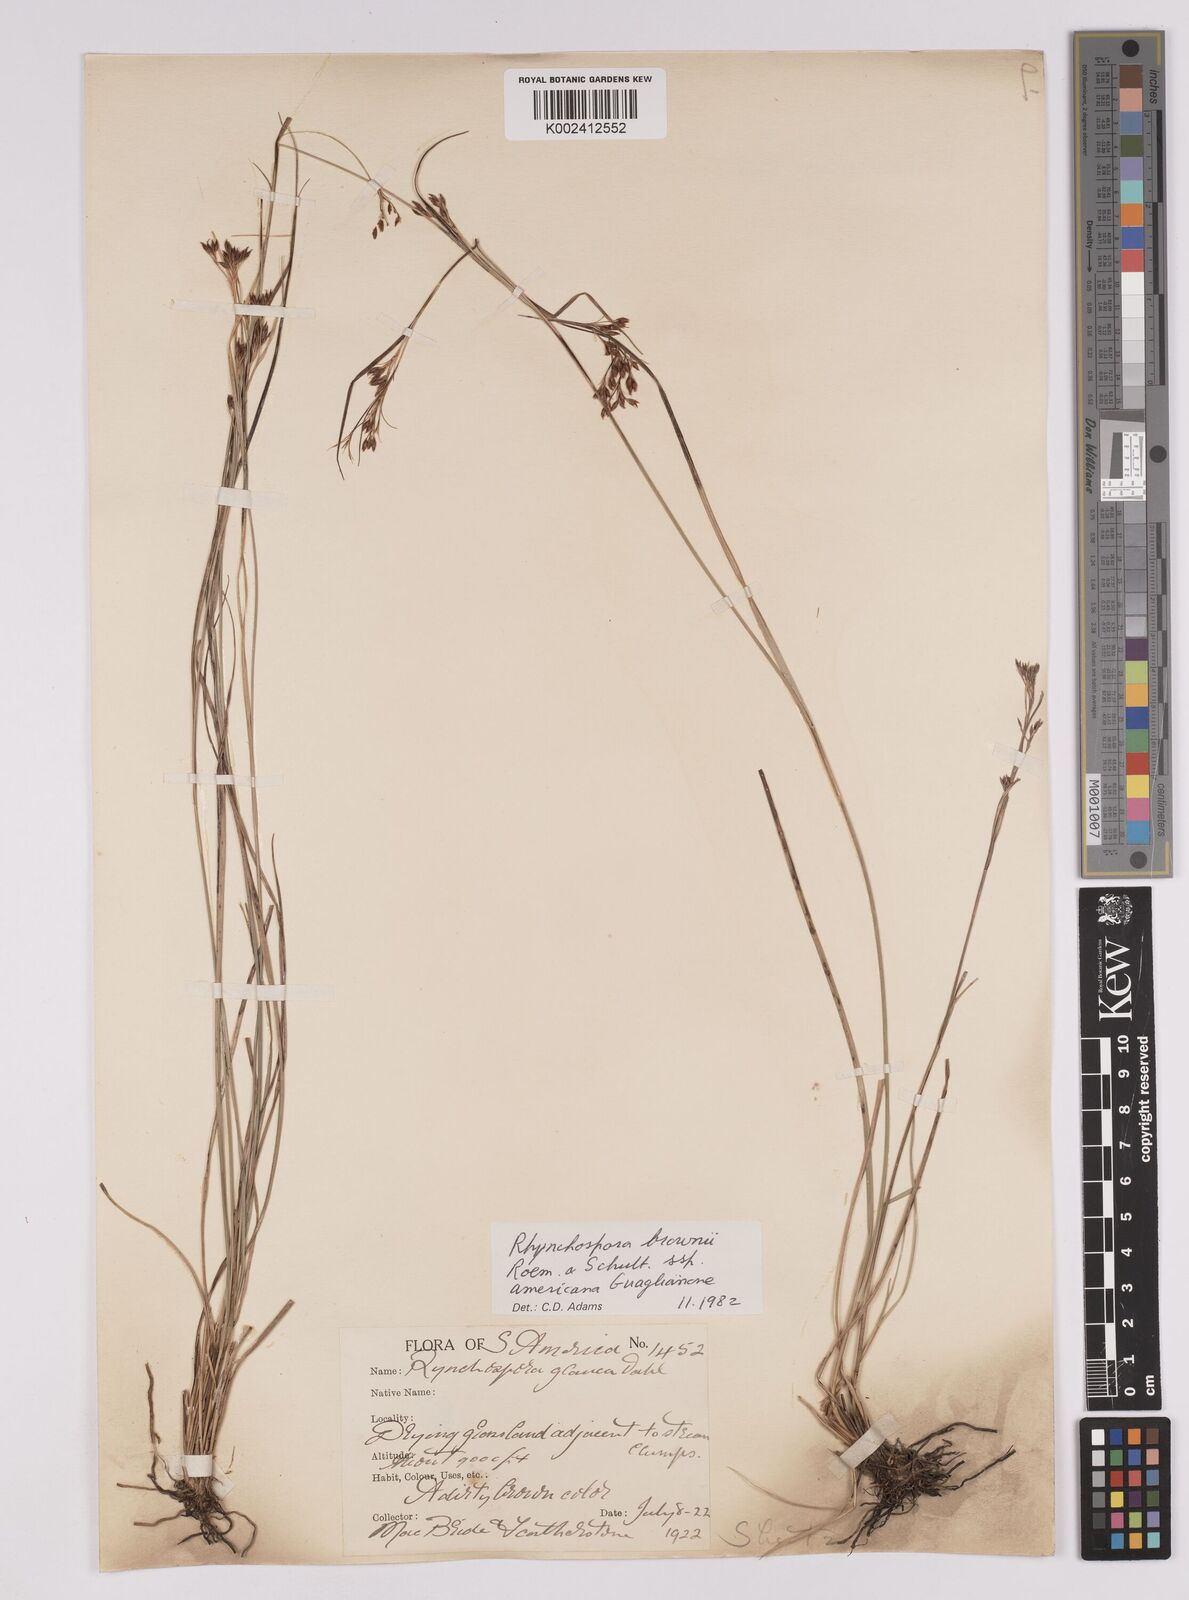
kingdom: Plantae
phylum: Tracheophyta
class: Liliopsida
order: Poales
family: Cyperaceae
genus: Rhynchospora
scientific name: Rhynchospora rugosa
